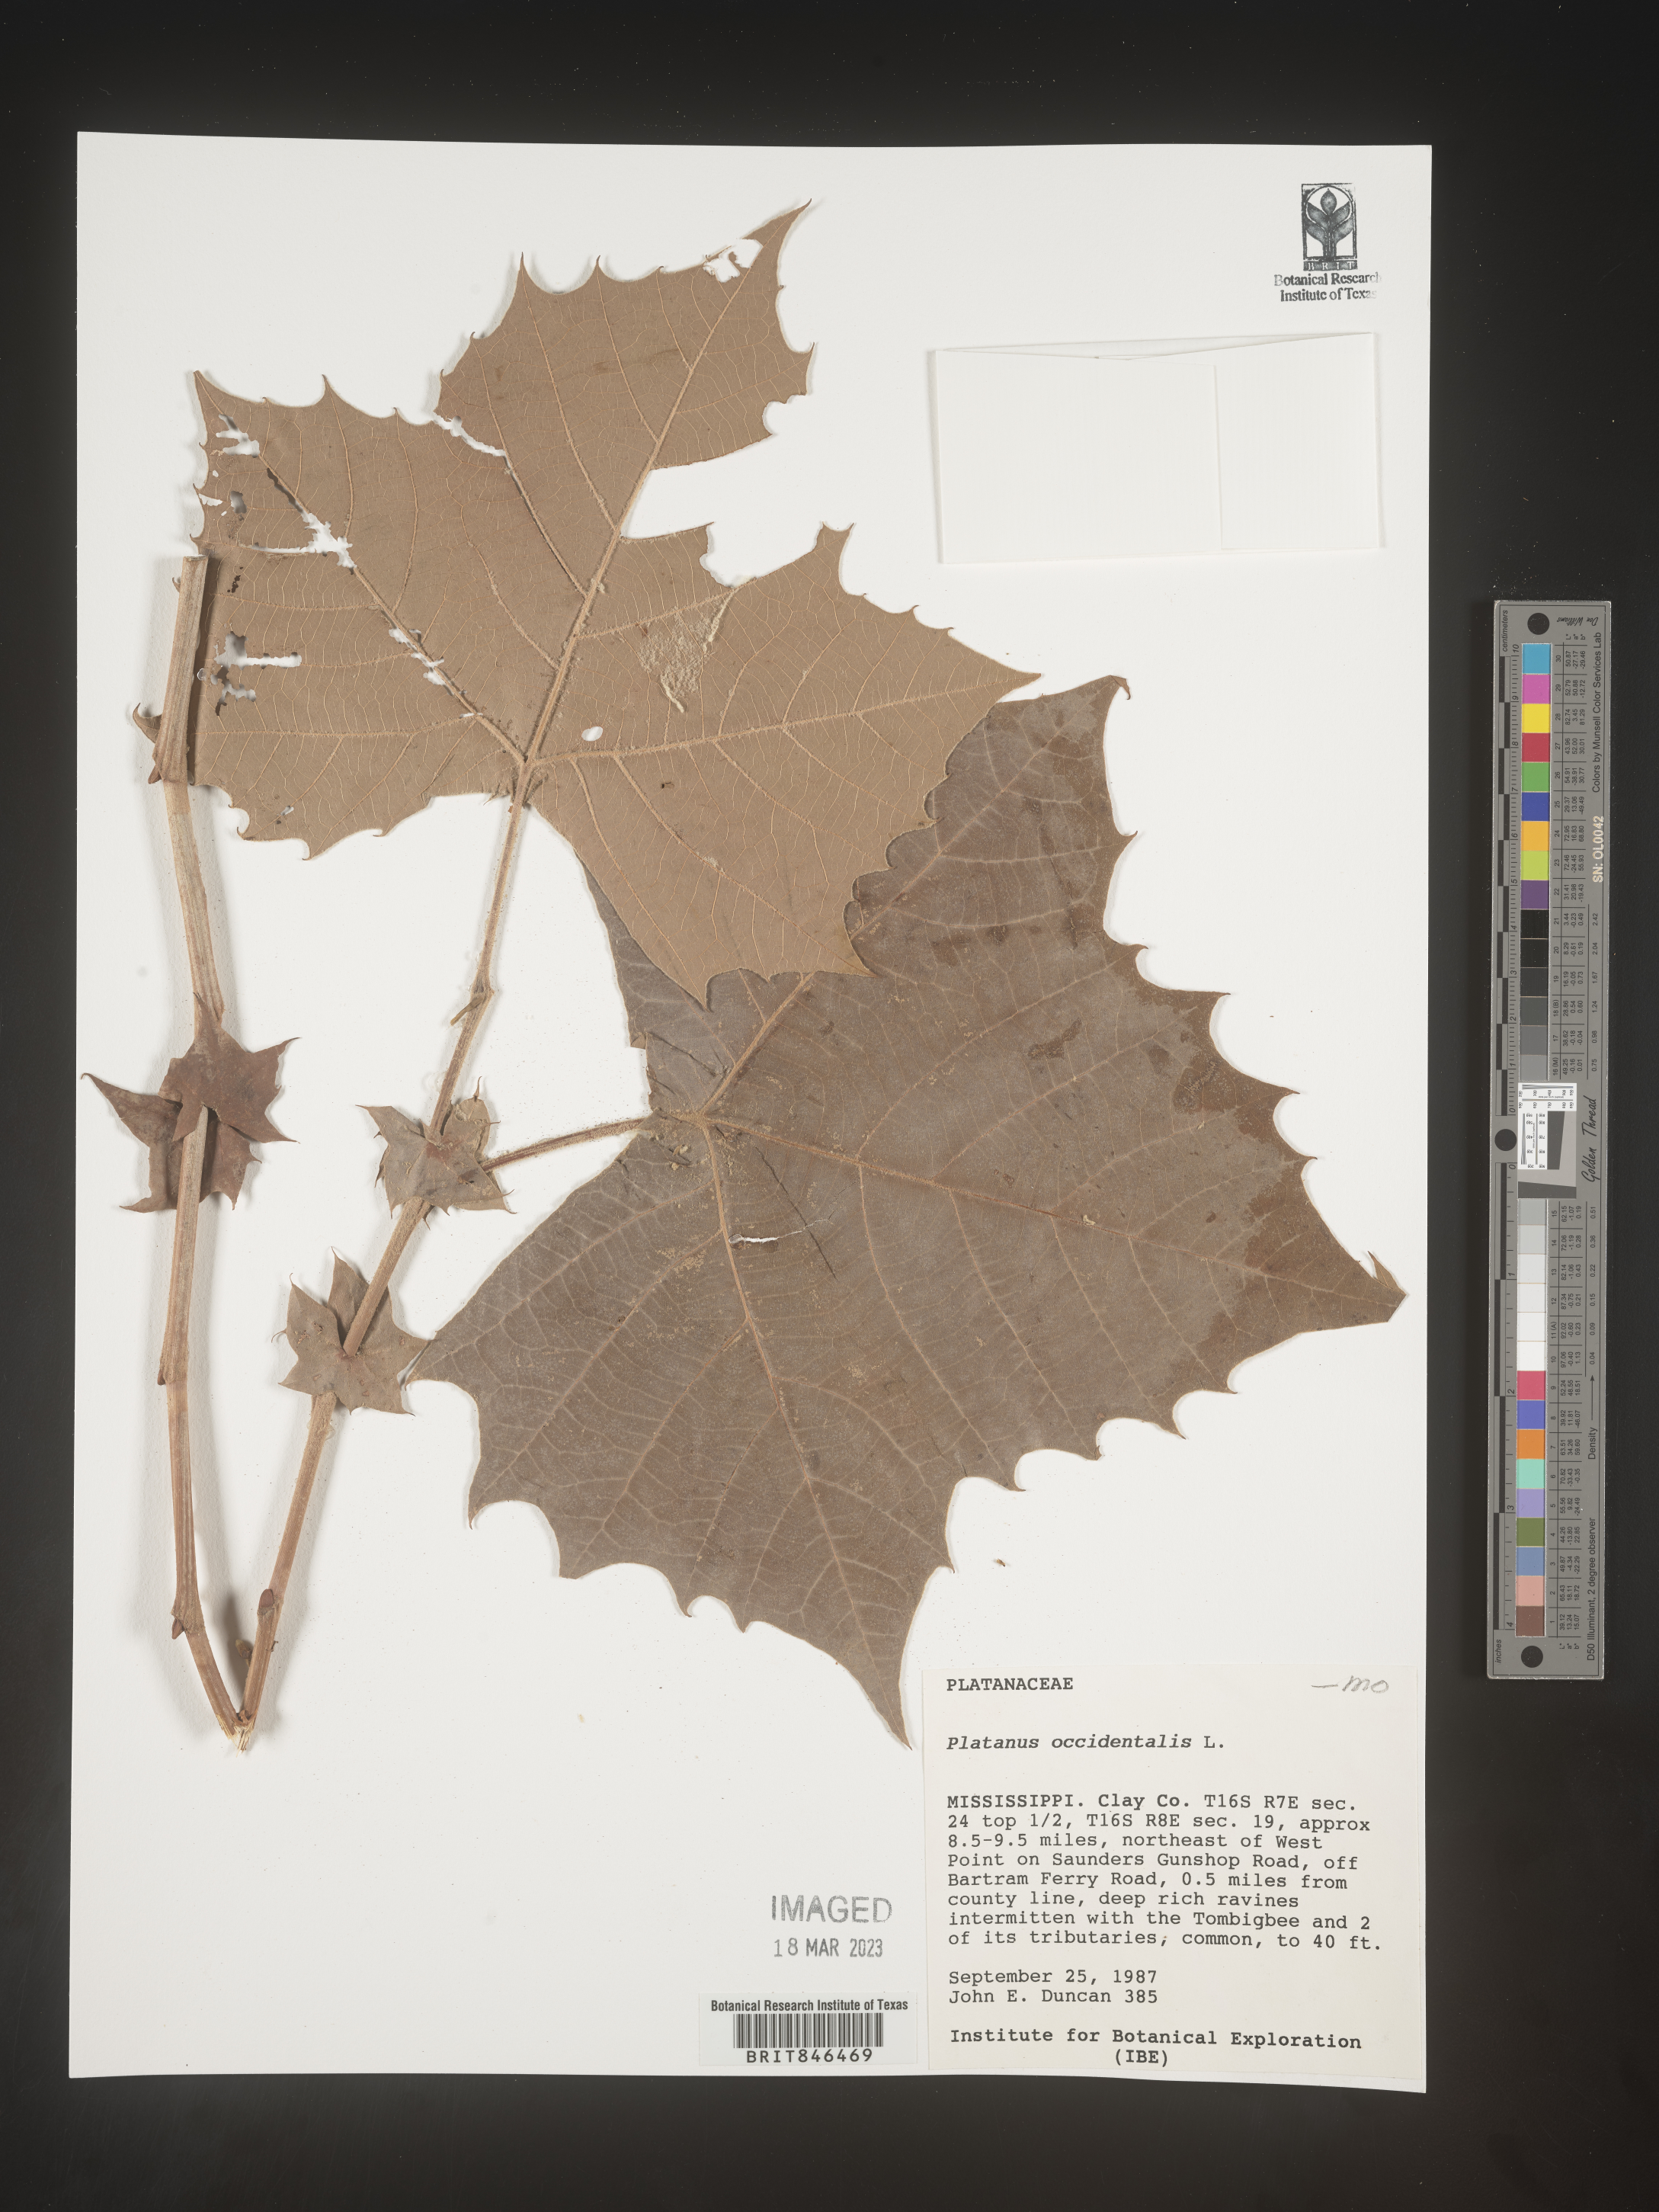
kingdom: Plantae
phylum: Tracheophyta
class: Magnoliopsida
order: Proteales
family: Platanaceae
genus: Platanus
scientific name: Platanus occidentalis
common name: American sycamore
